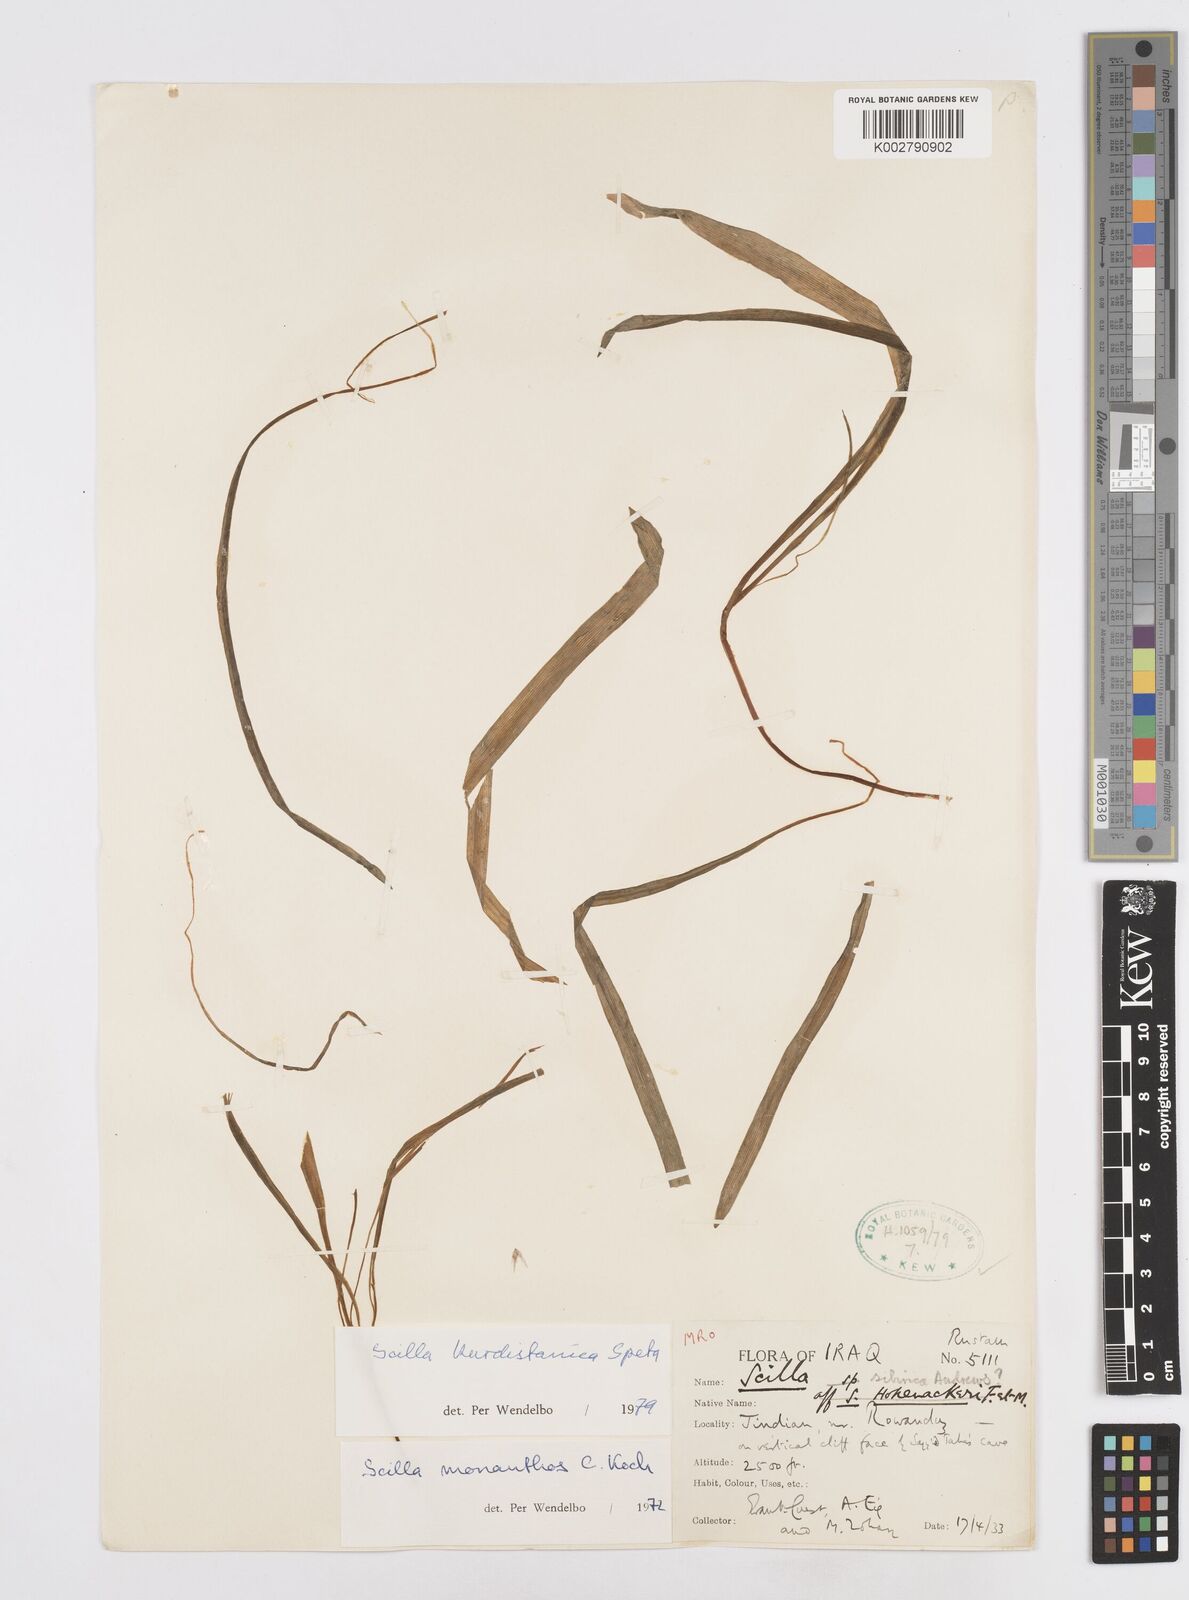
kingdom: Plantae
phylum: Tracheophyta
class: Liliopsida
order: Asparagales
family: Asparagaceae
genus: Scilla
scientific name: Scilla kurdistanica
